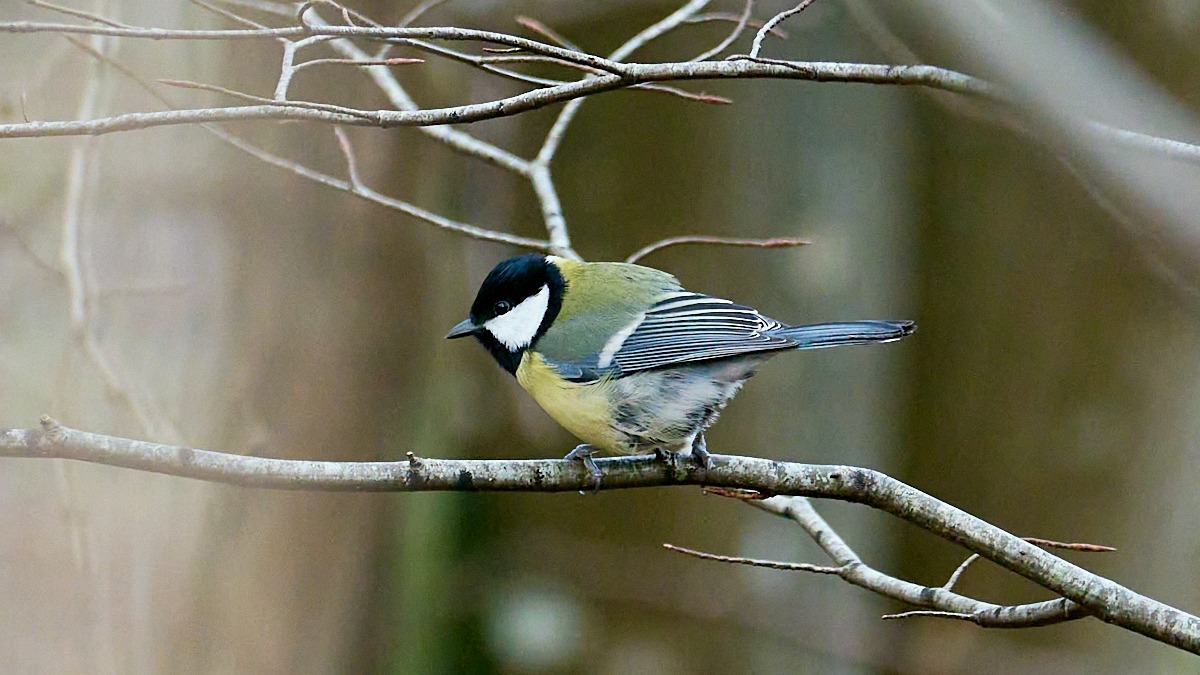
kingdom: Animalia
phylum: Chordata
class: Aves
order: Passeriformes
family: Paridae
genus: Parus
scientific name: Parus major
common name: Musvit
